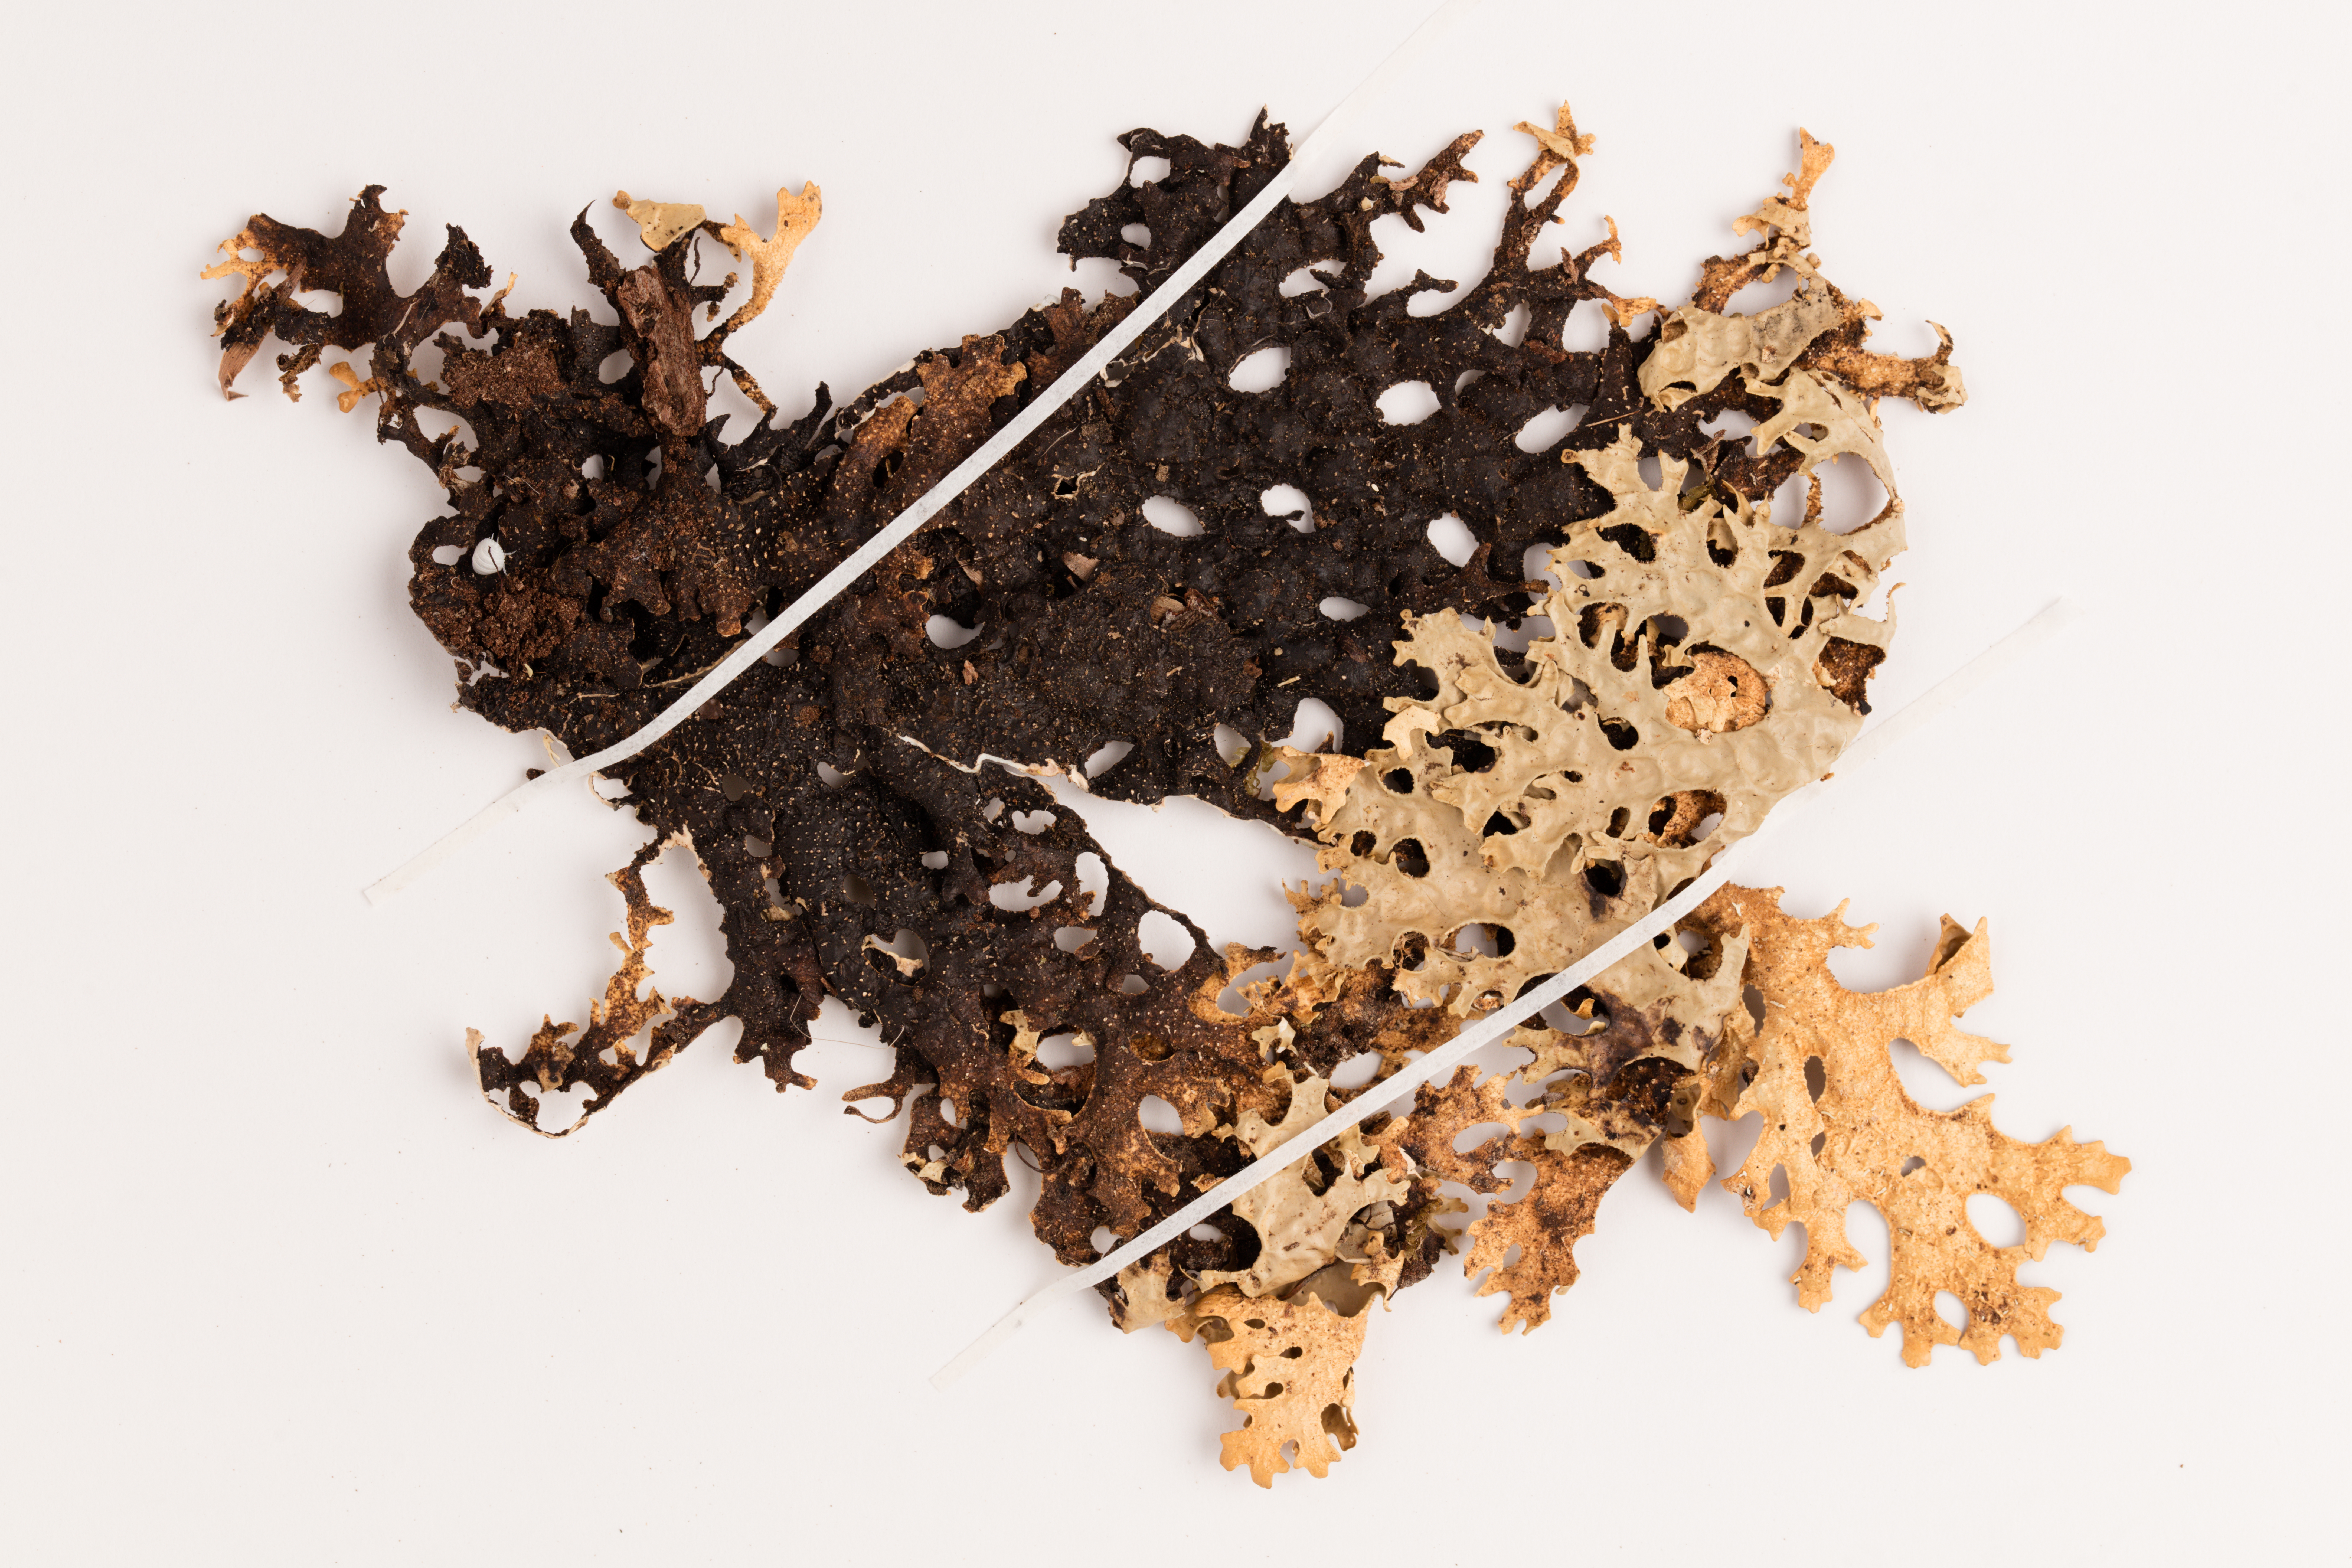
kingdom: Fungi
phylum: Ascomycota
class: Lecanoromycetes
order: Peltigerales
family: Lobariaceae
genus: Pseudocyphellaria
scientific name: Pseudocyphellaria carpoloma
